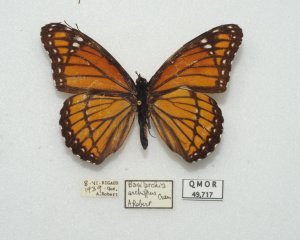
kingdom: Animalia
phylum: Arthropoda
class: Insecta
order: Lepidoptera
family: Nymphalidae
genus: Limenitis
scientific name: Limenitis archippus
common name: Viceroy
